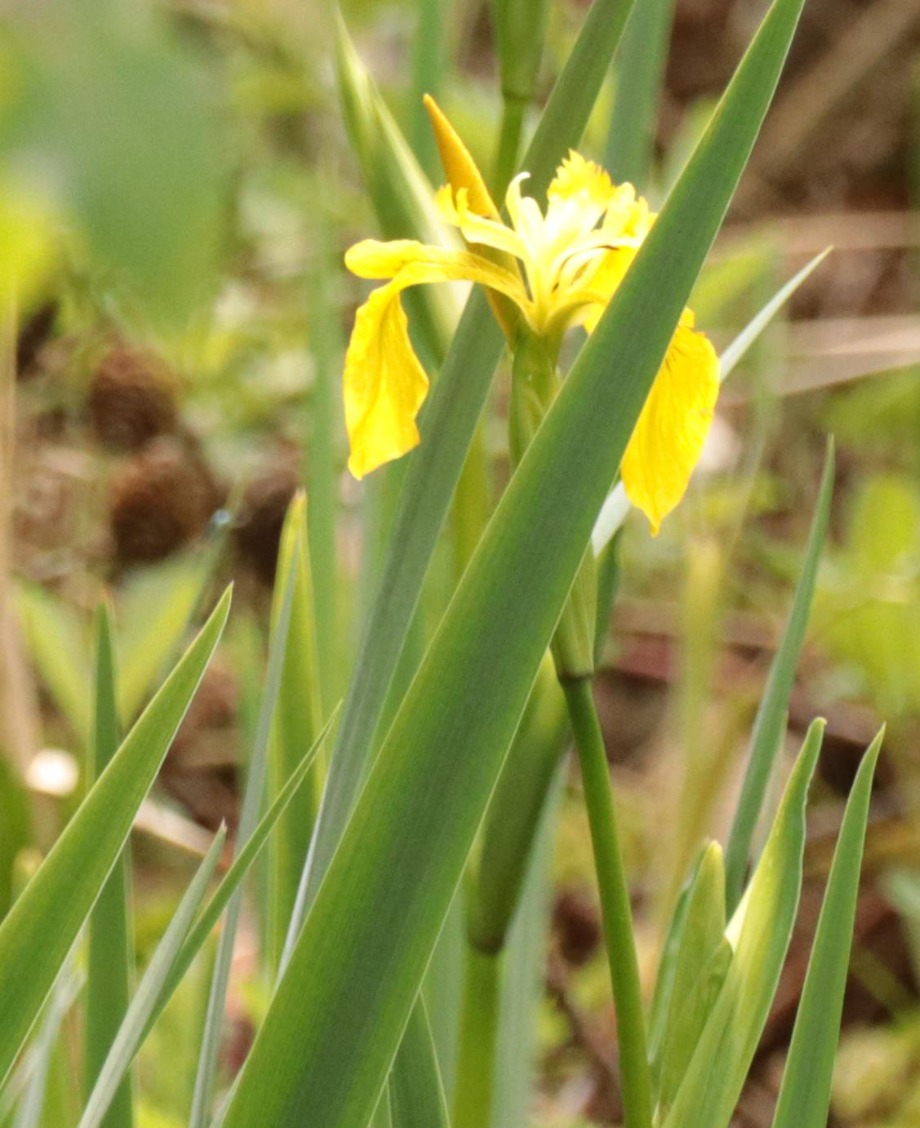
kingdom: Plantae
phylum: Tracheophyta
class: Liliopsida
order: Asparagales
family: Iridaceae
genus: Iris
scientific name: Iris pseudacorus
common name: Gul iris
